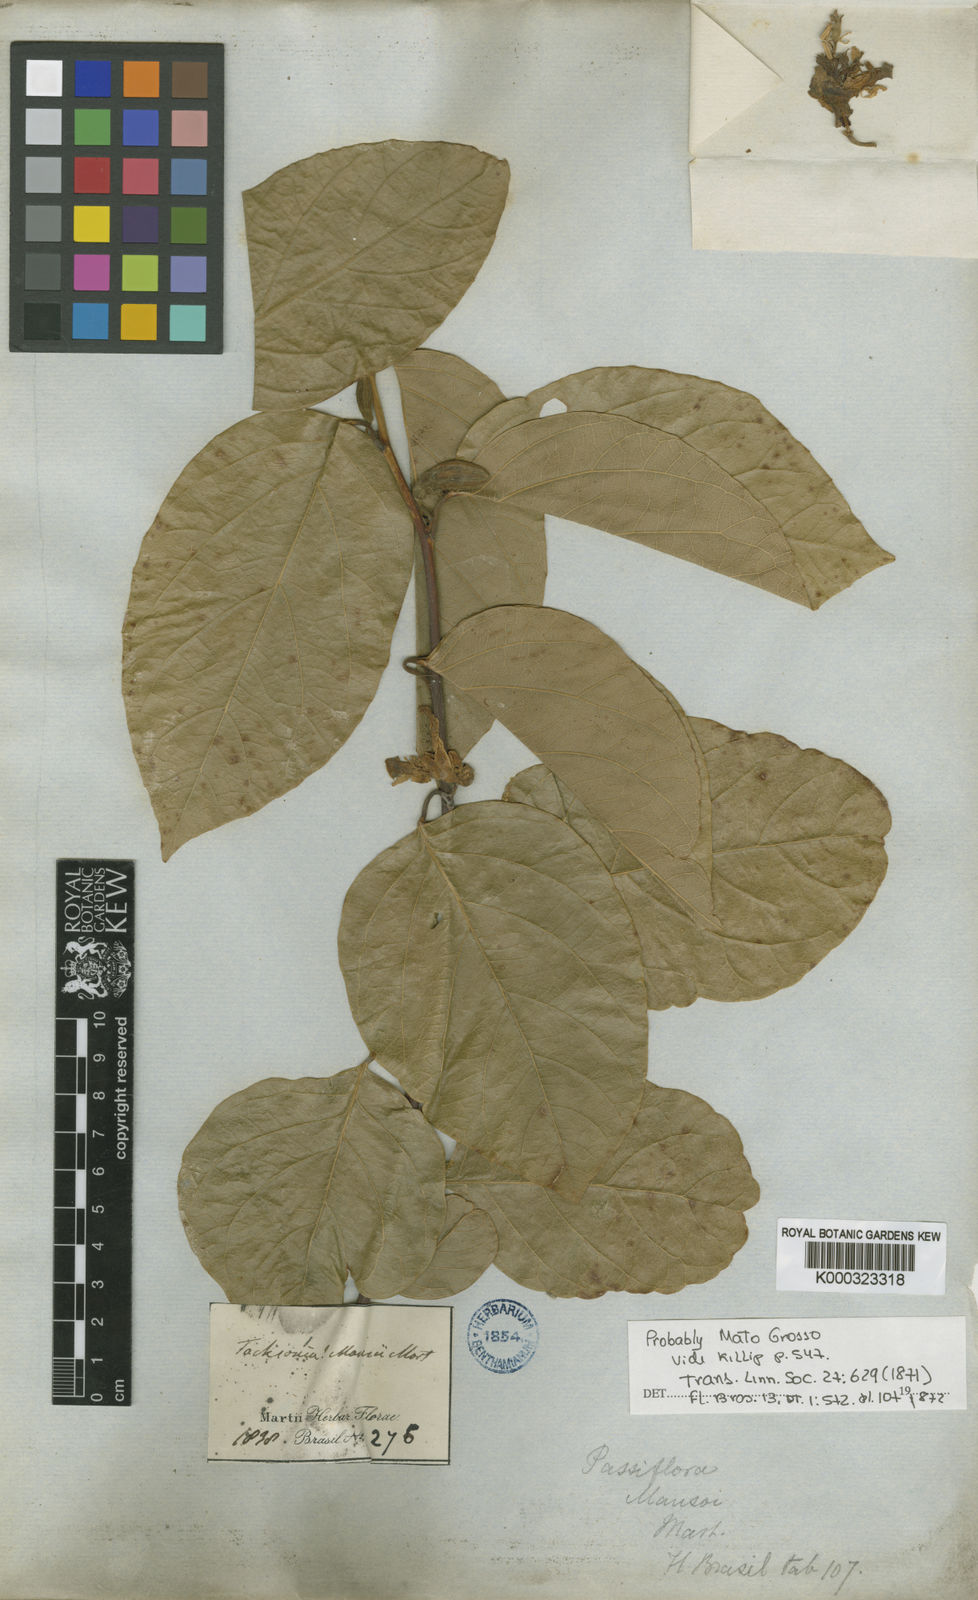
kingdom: Plantae
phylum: Tracheophyta
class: Magnoliopsida
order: Malpighiales
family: Passifloraceae
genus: Passiflora
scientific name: Passiflora mansoi
